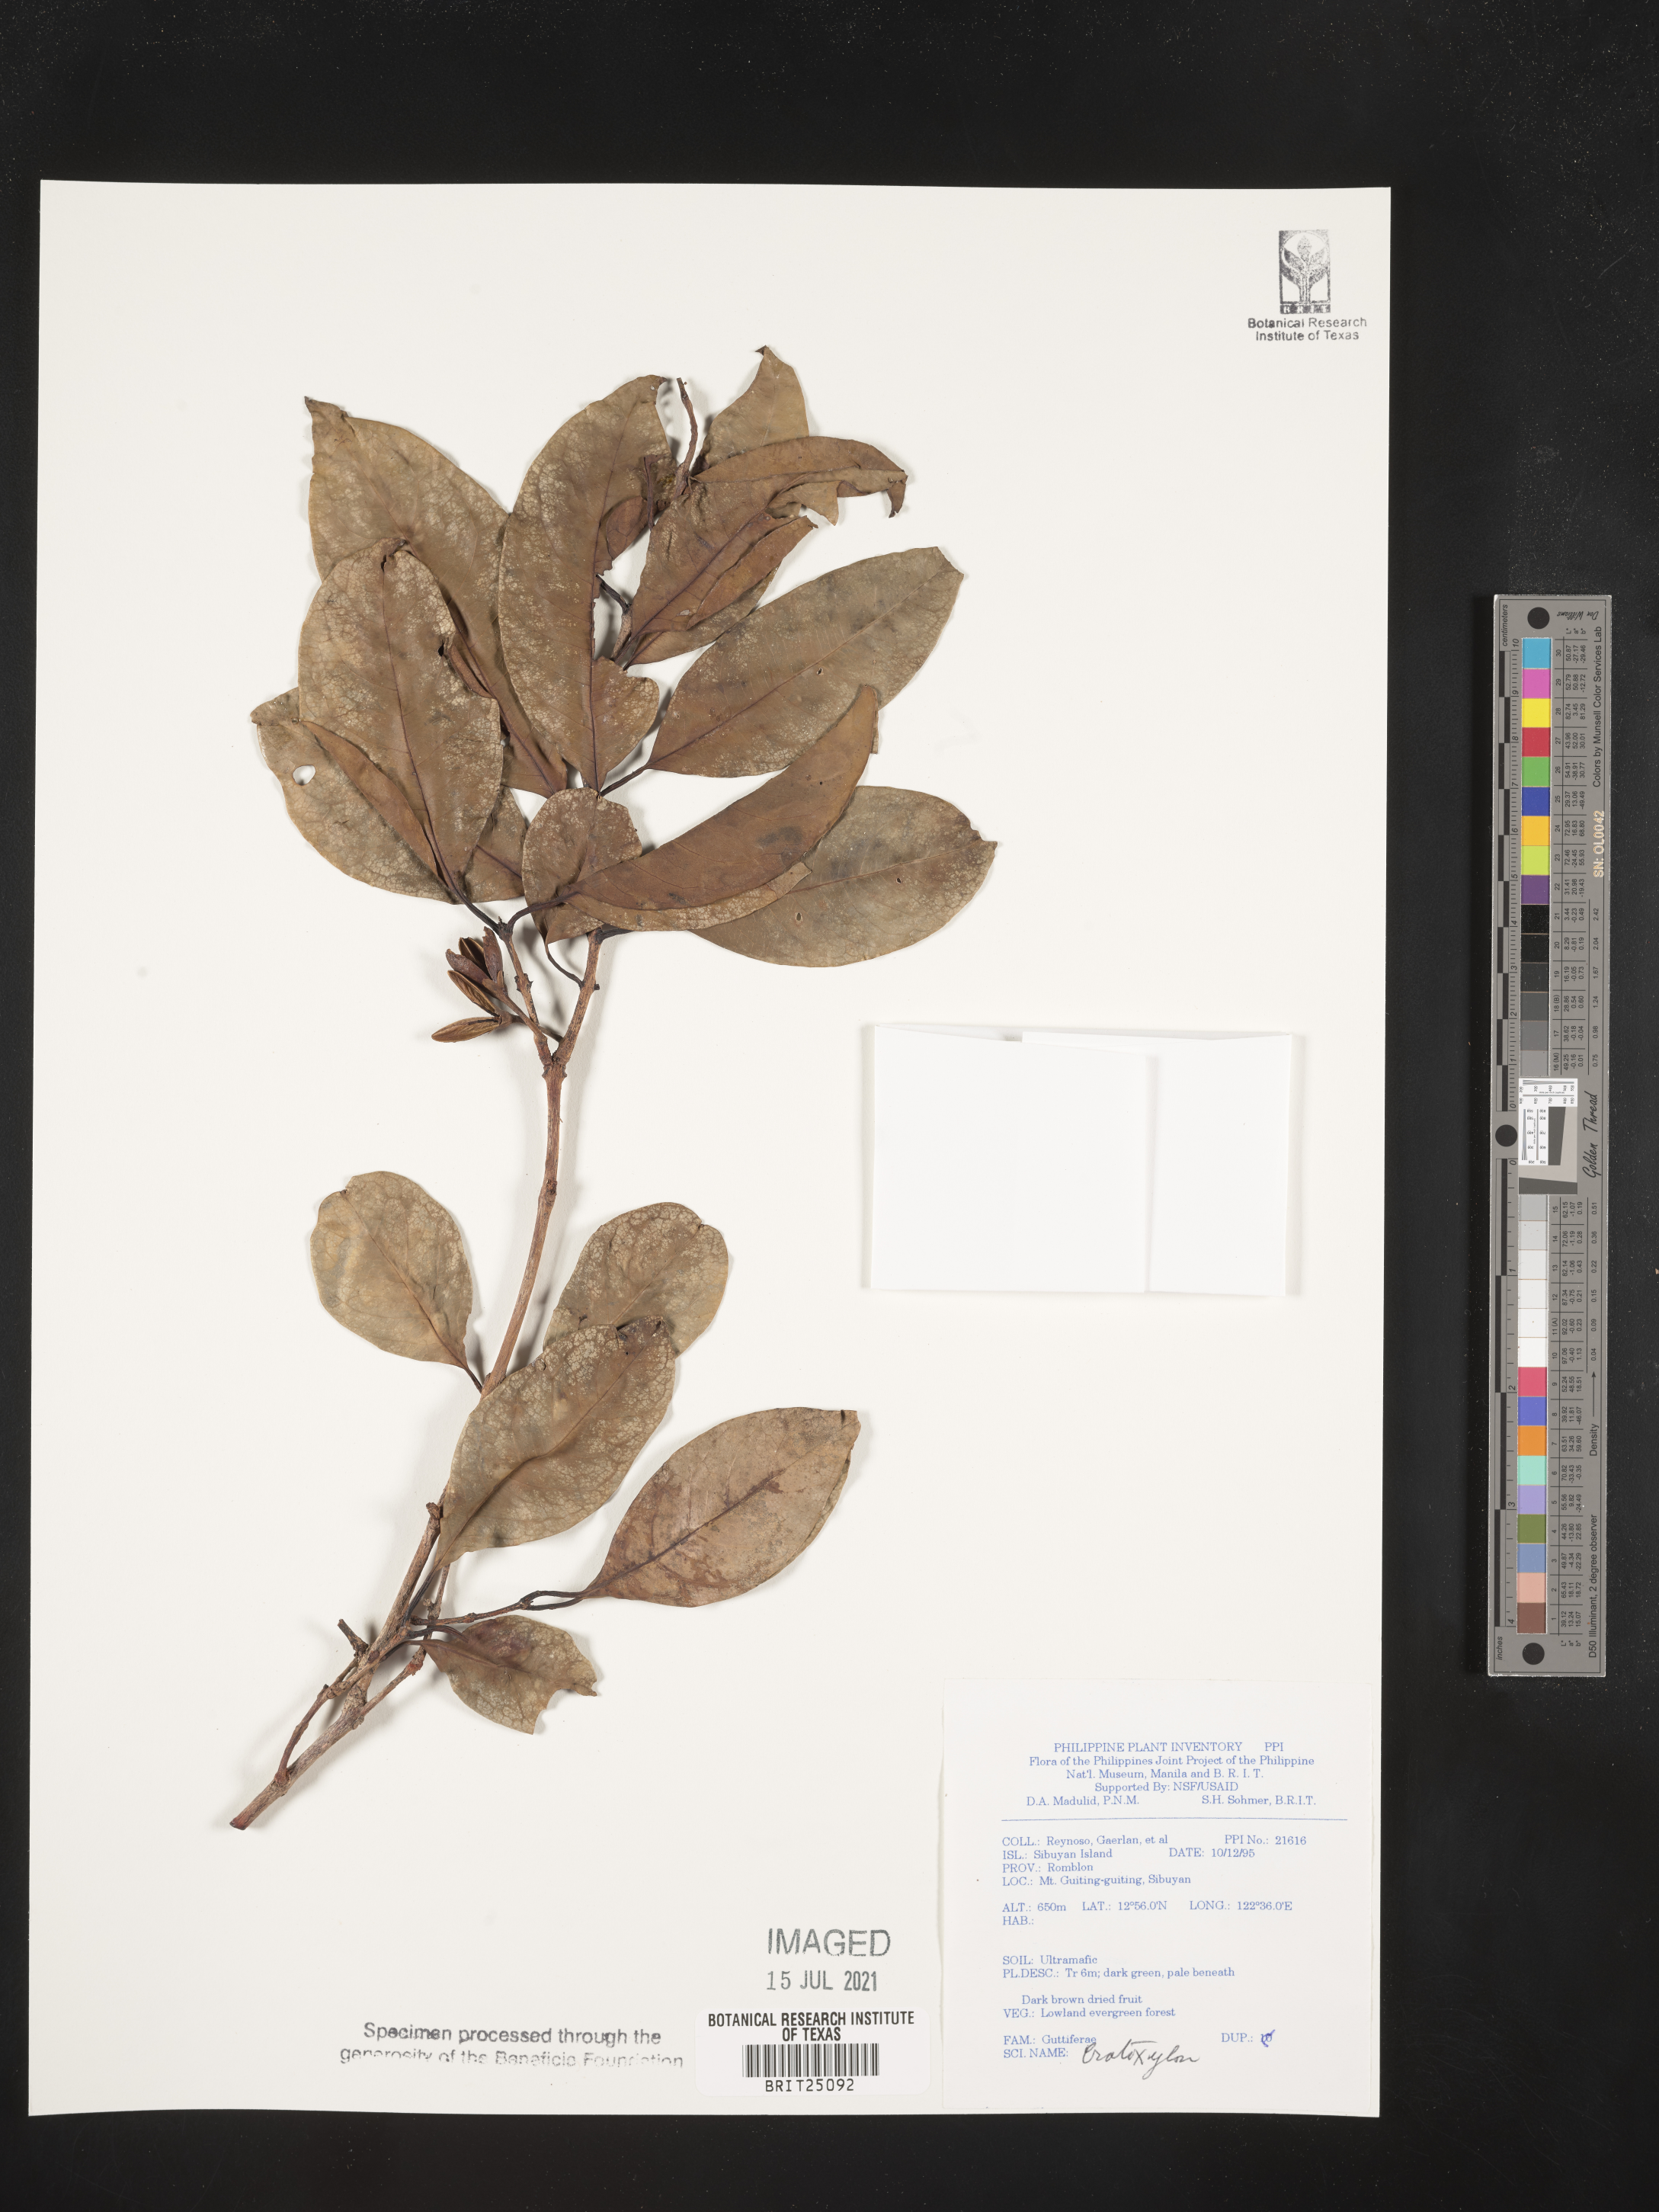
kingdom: Plantae
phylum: Tracheophyta
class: Magnoliopsida
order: Malpighiales
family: Hypericaceae
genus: Cratoxylum
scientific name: Cratoxylum
